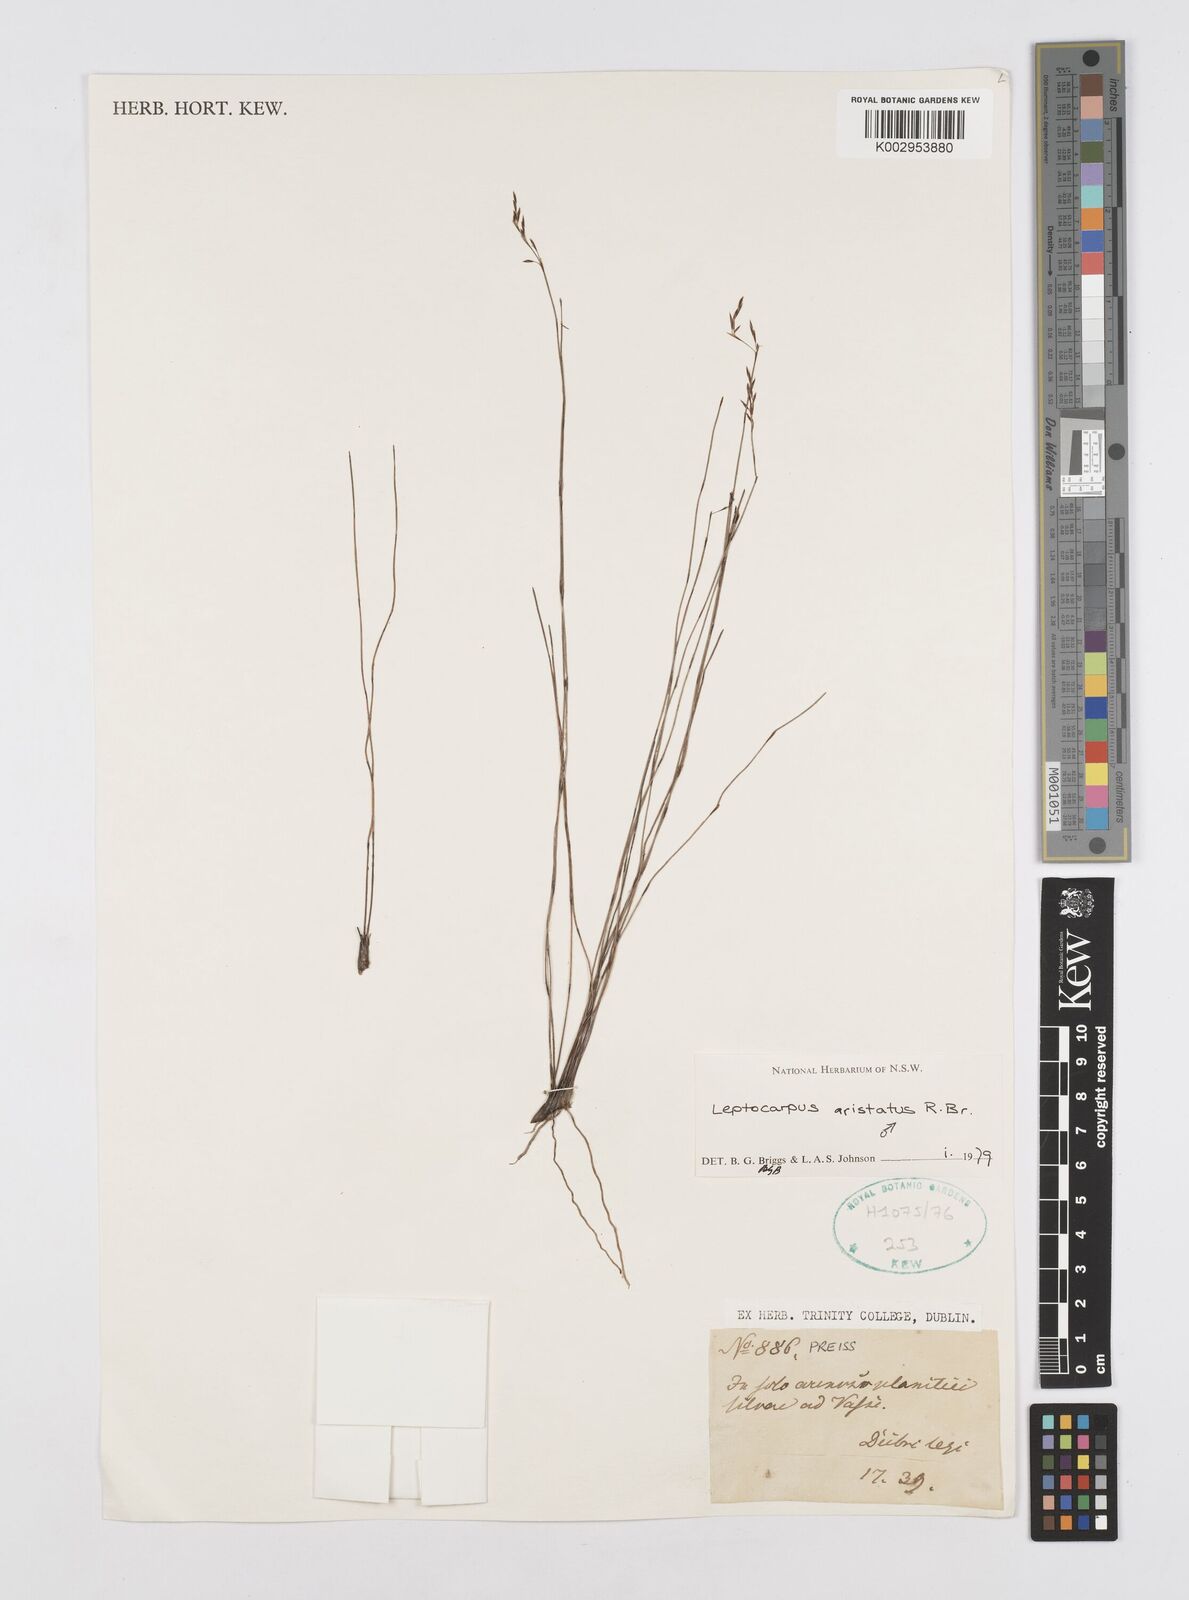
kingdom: Plantae
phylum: Tracheophyta
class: Liliopsida
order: Poales
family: Restionaceae
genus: Chaetanthus
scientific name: Chaetanthus aristatus
